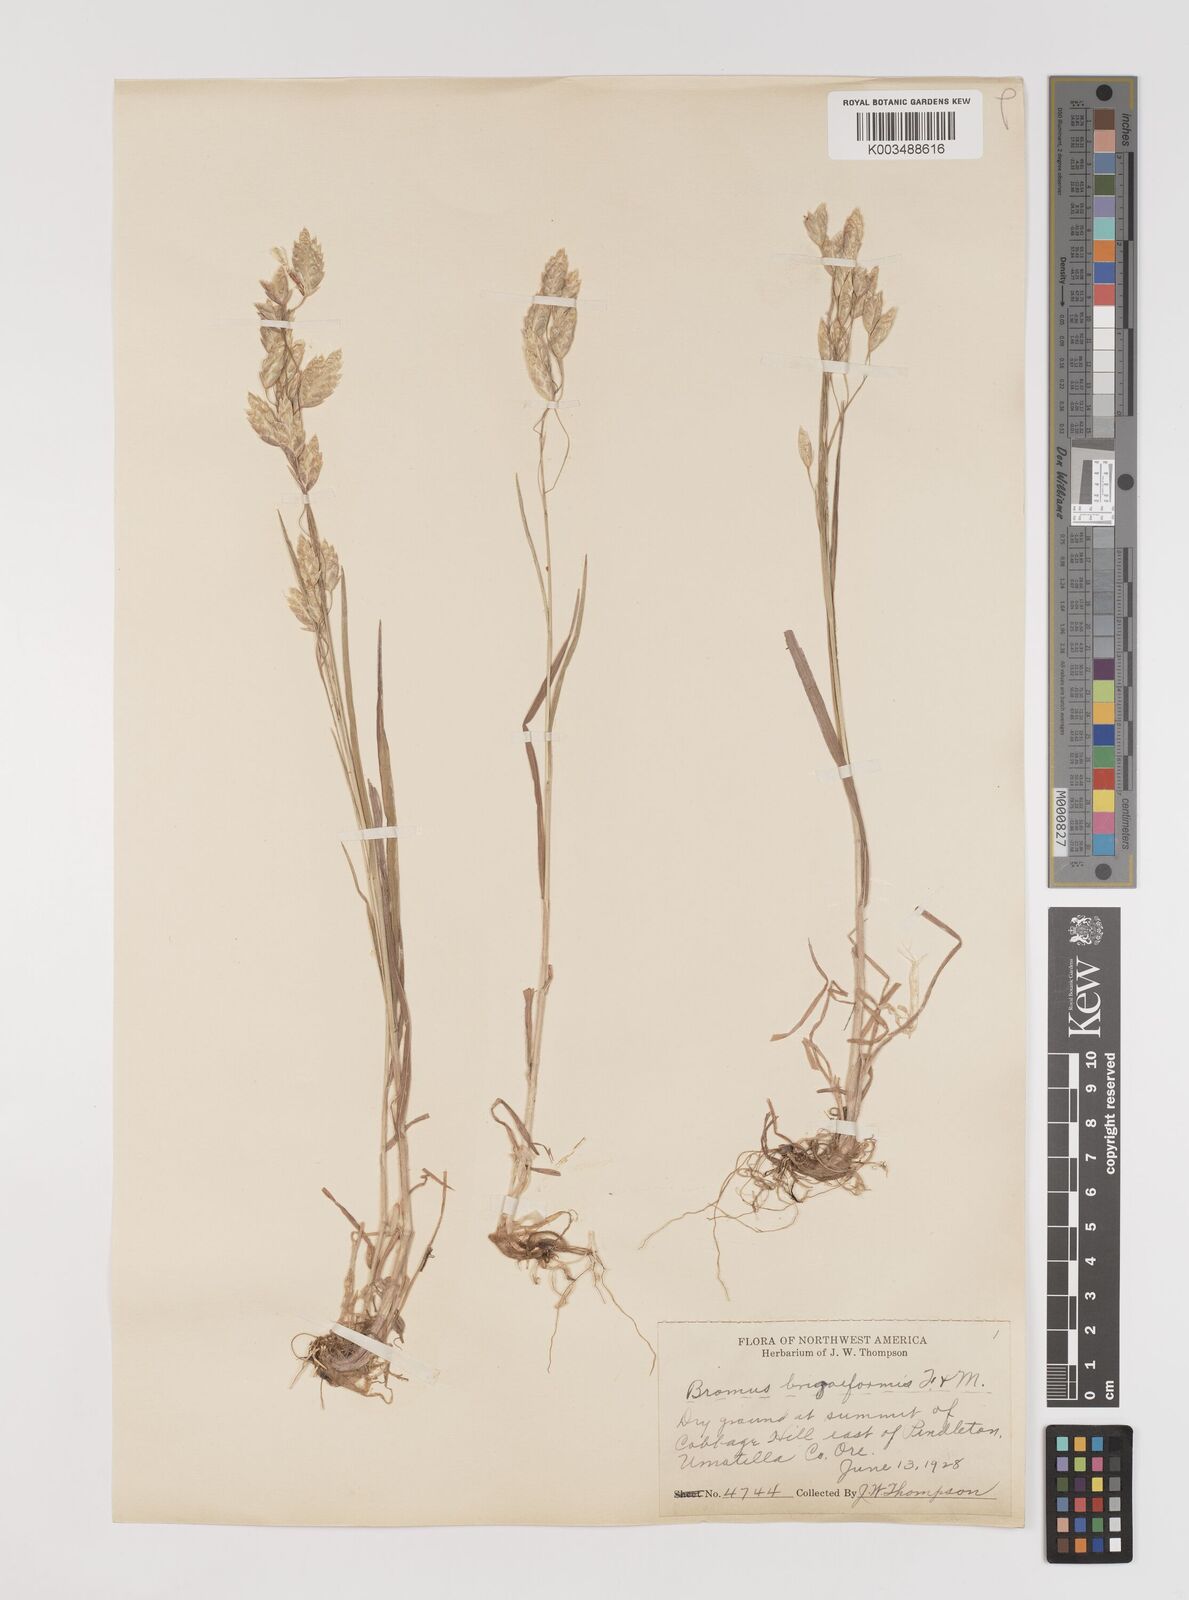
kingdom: Plantae
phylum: Tracheophyta
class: Liliopsida
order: Poales
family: Poaceae
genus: Bromus
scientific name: Bromus briziformis
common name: Rattlesnake brome
